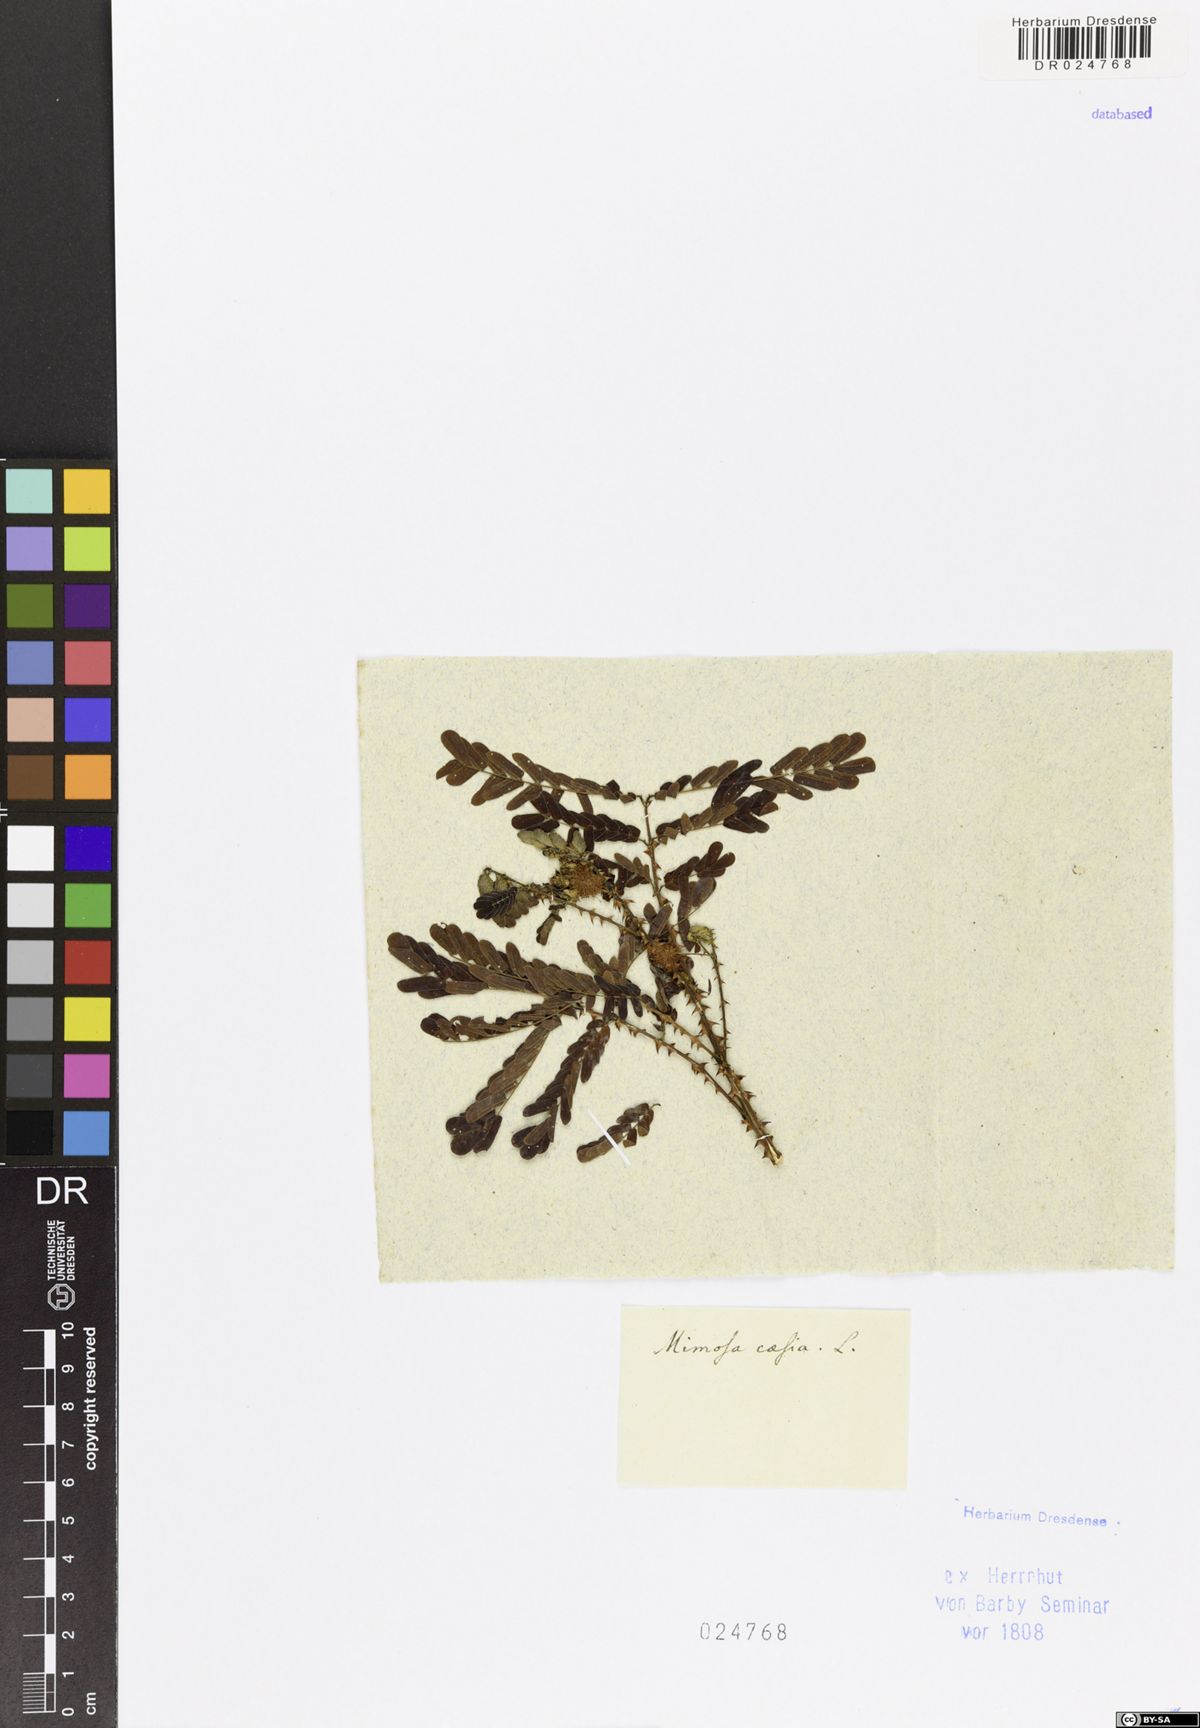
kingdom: Plantae
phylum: Tracheophyta
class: Magnoliopsida
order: Fabales
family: Fabaceae
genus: Senegalia
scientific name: Senegalia caesia
